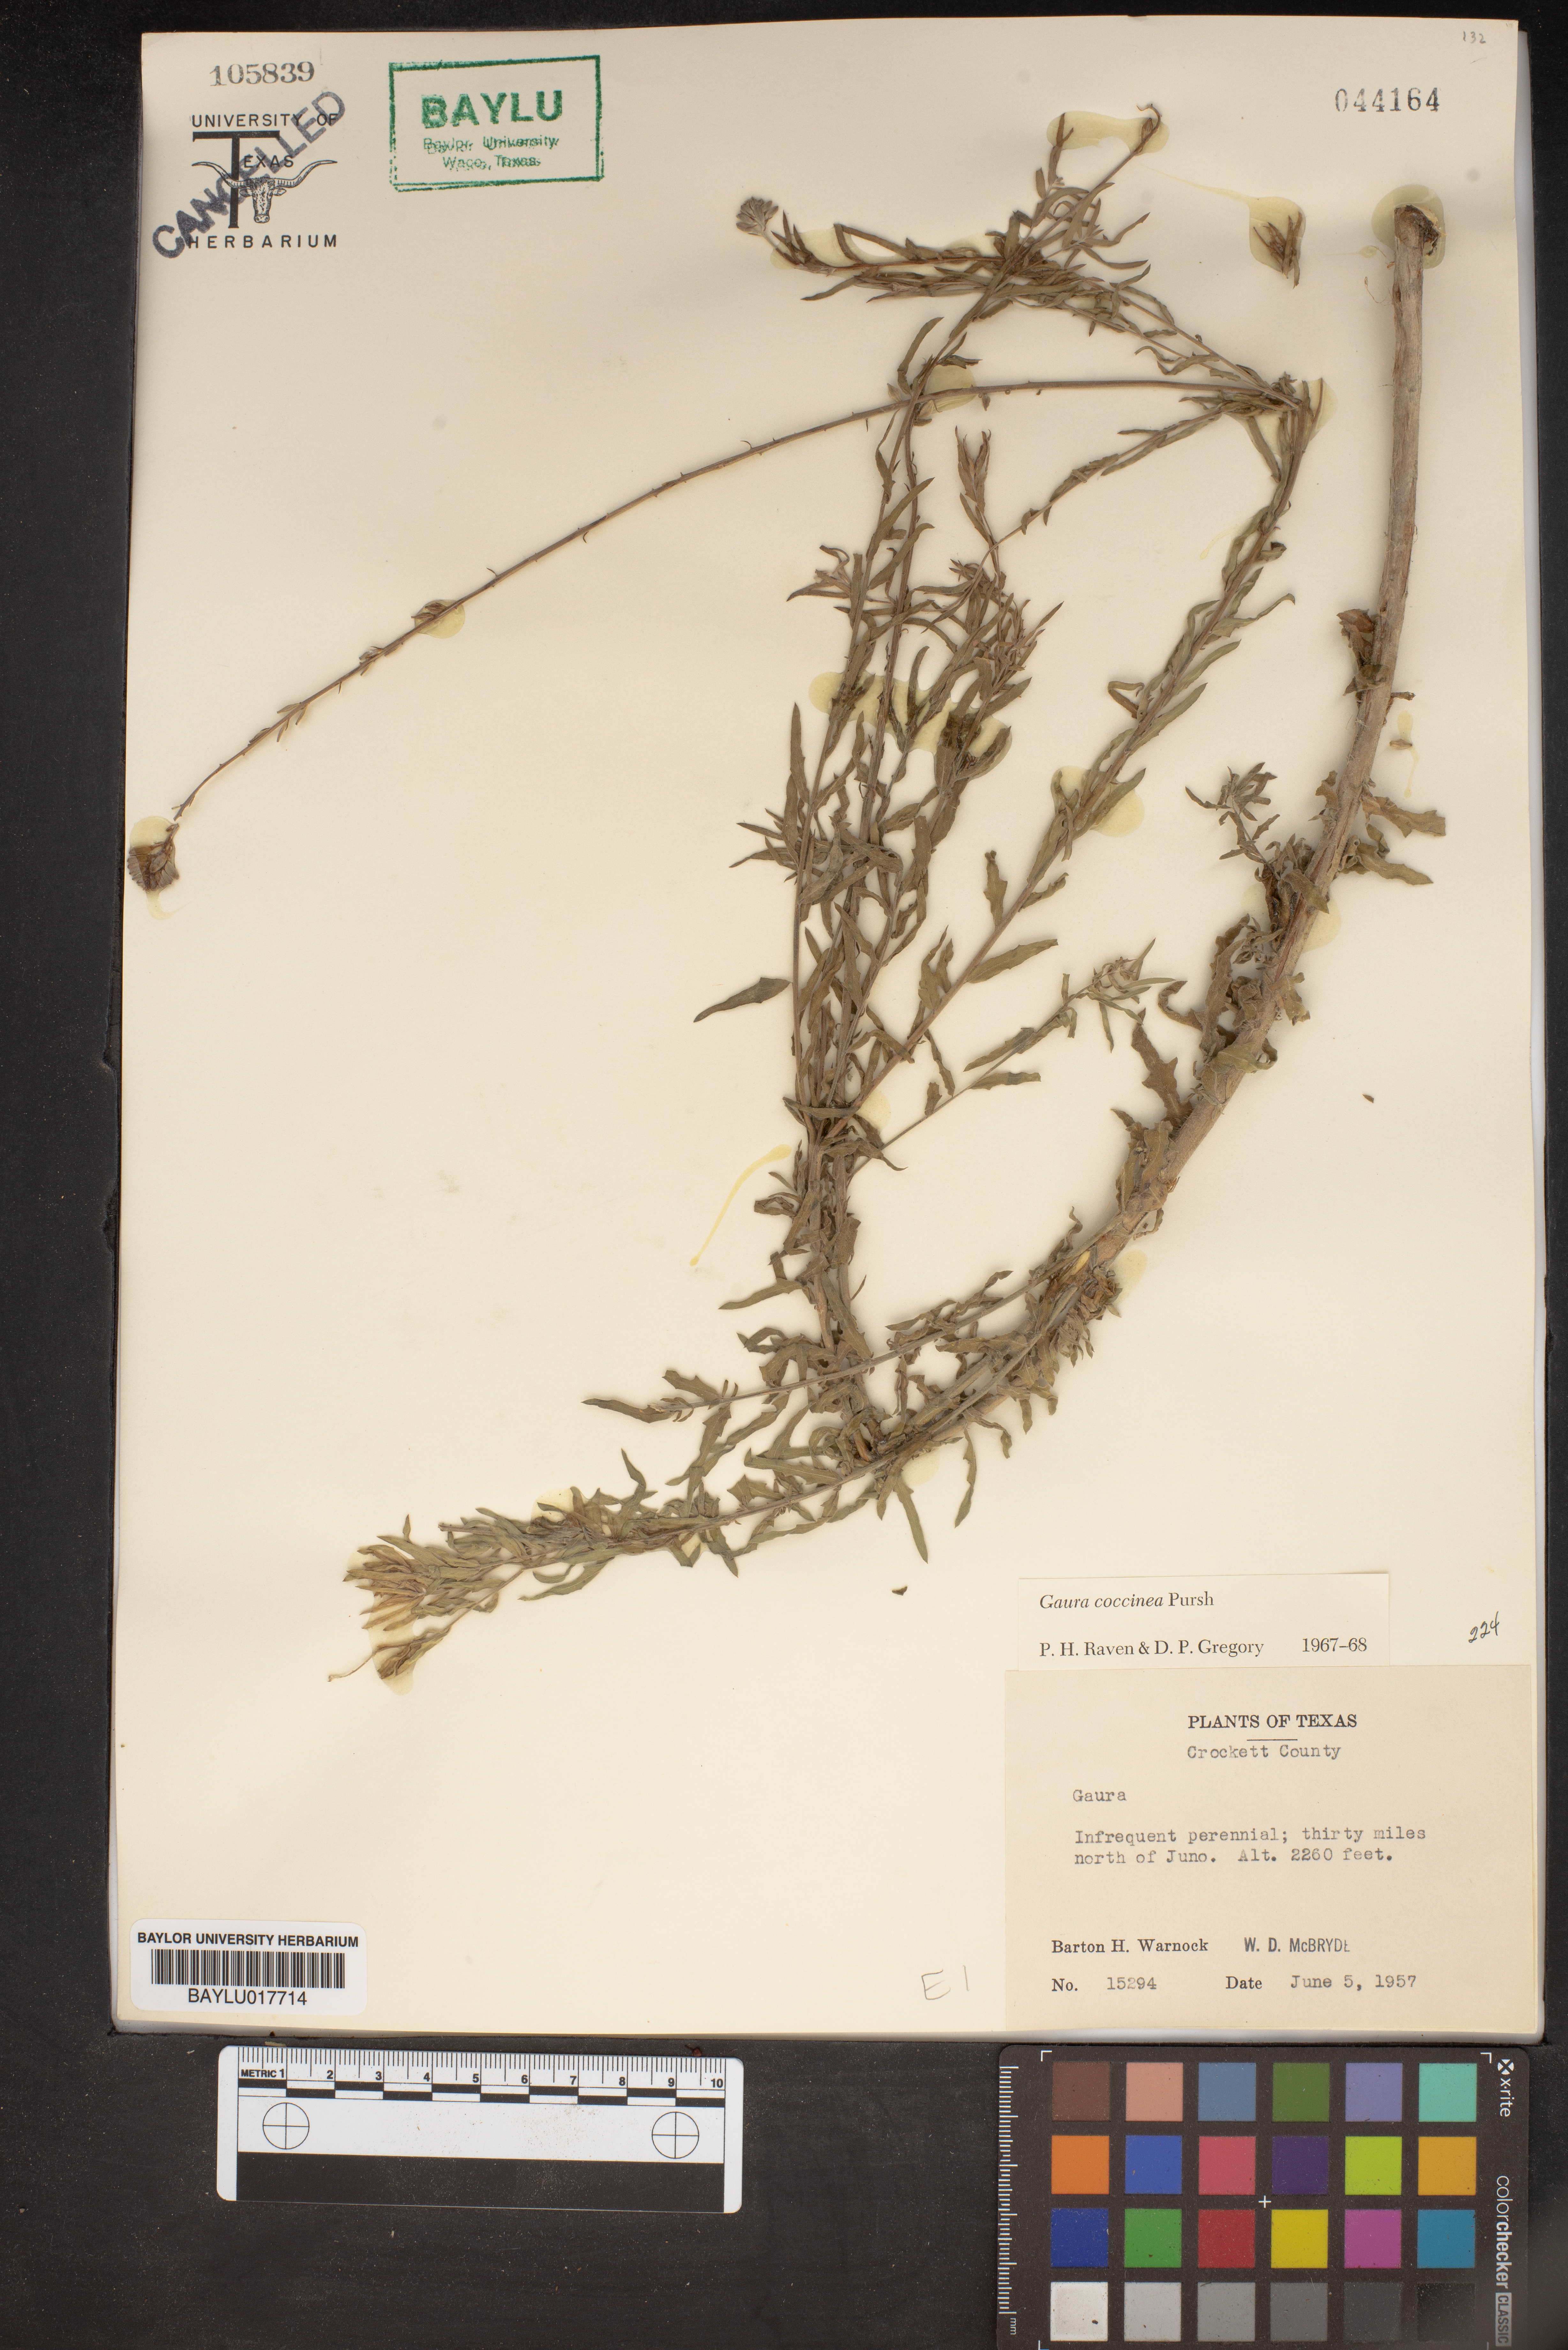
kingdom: Plantae
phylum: Tracheophyta
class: Magnoliopsida
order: Myrtales
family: Onagraceae
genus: Oenothera
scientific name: Oenothera suffrutescens
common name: Scarlet beeblossom
